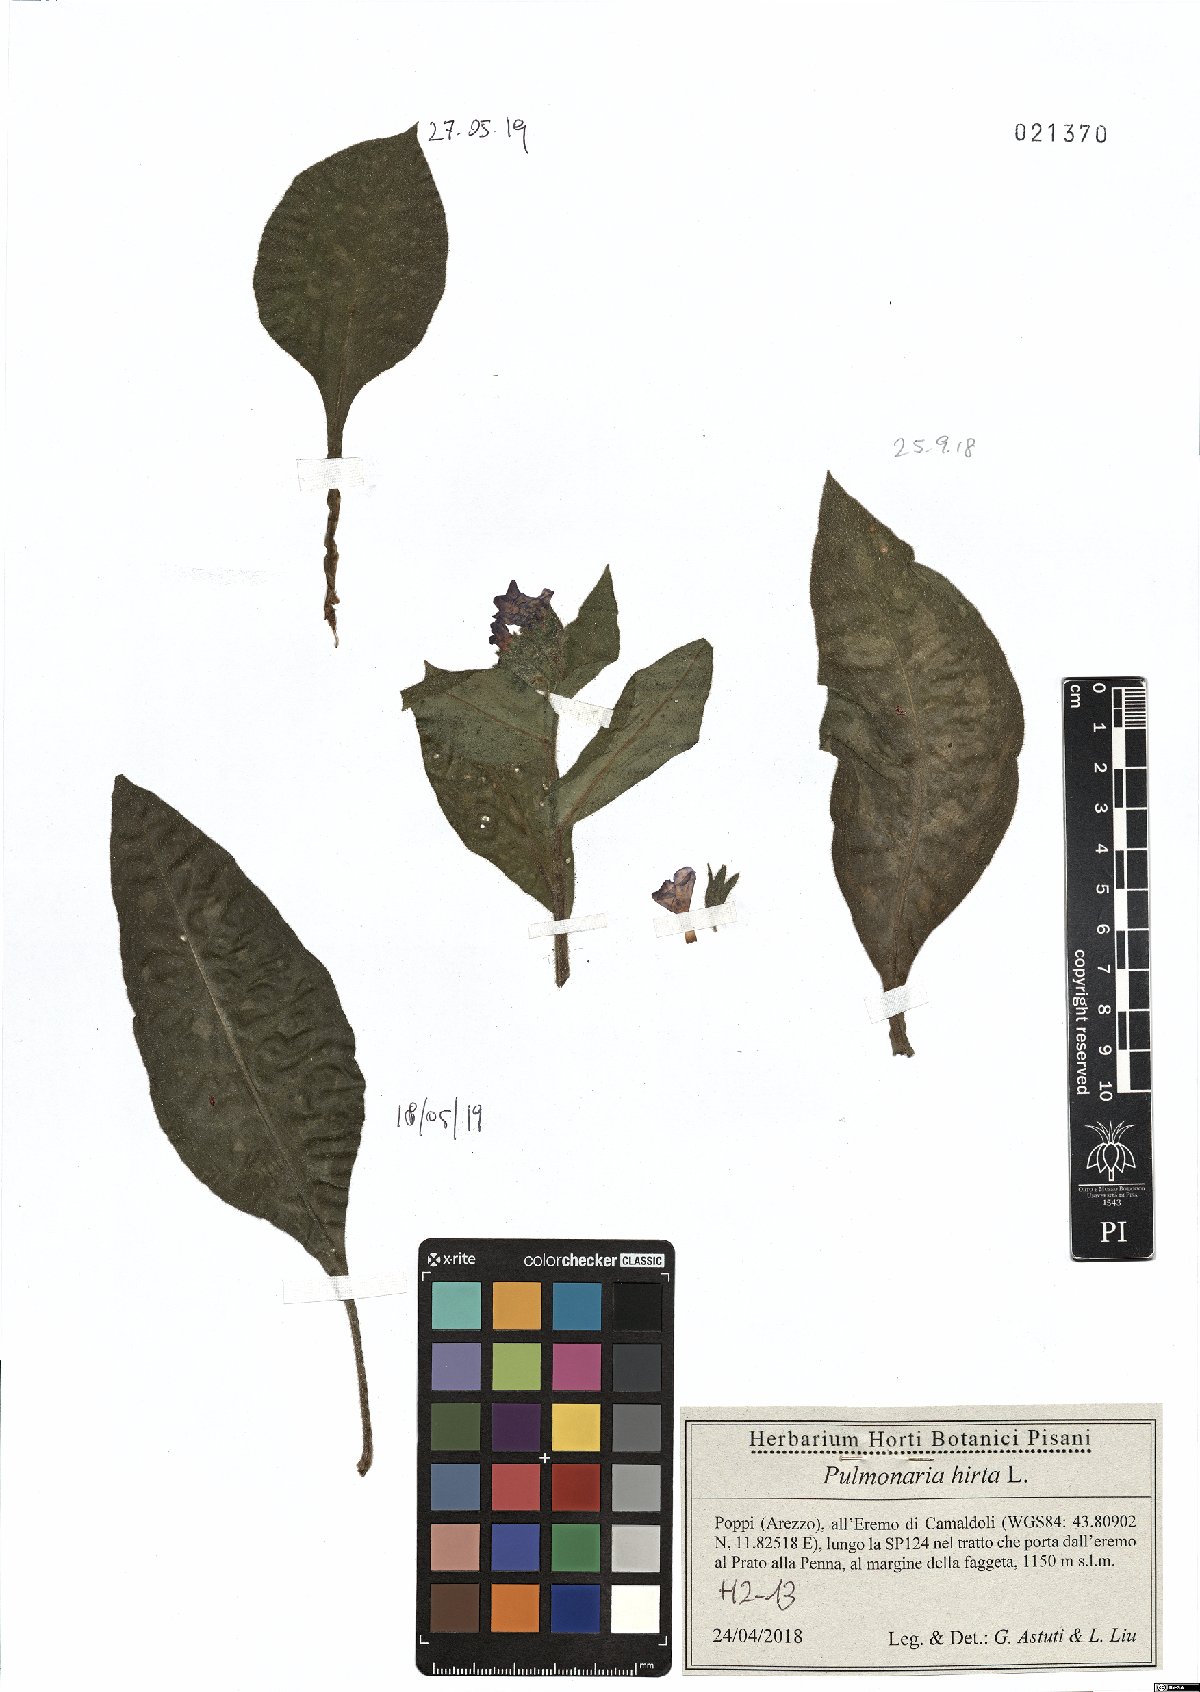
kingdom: Plantae
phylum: Tracheophyta
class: Magnoliopsida
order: Boraginales
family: Boraginaceae
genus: Pulmonaria
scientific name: Pulmonaria hirta
